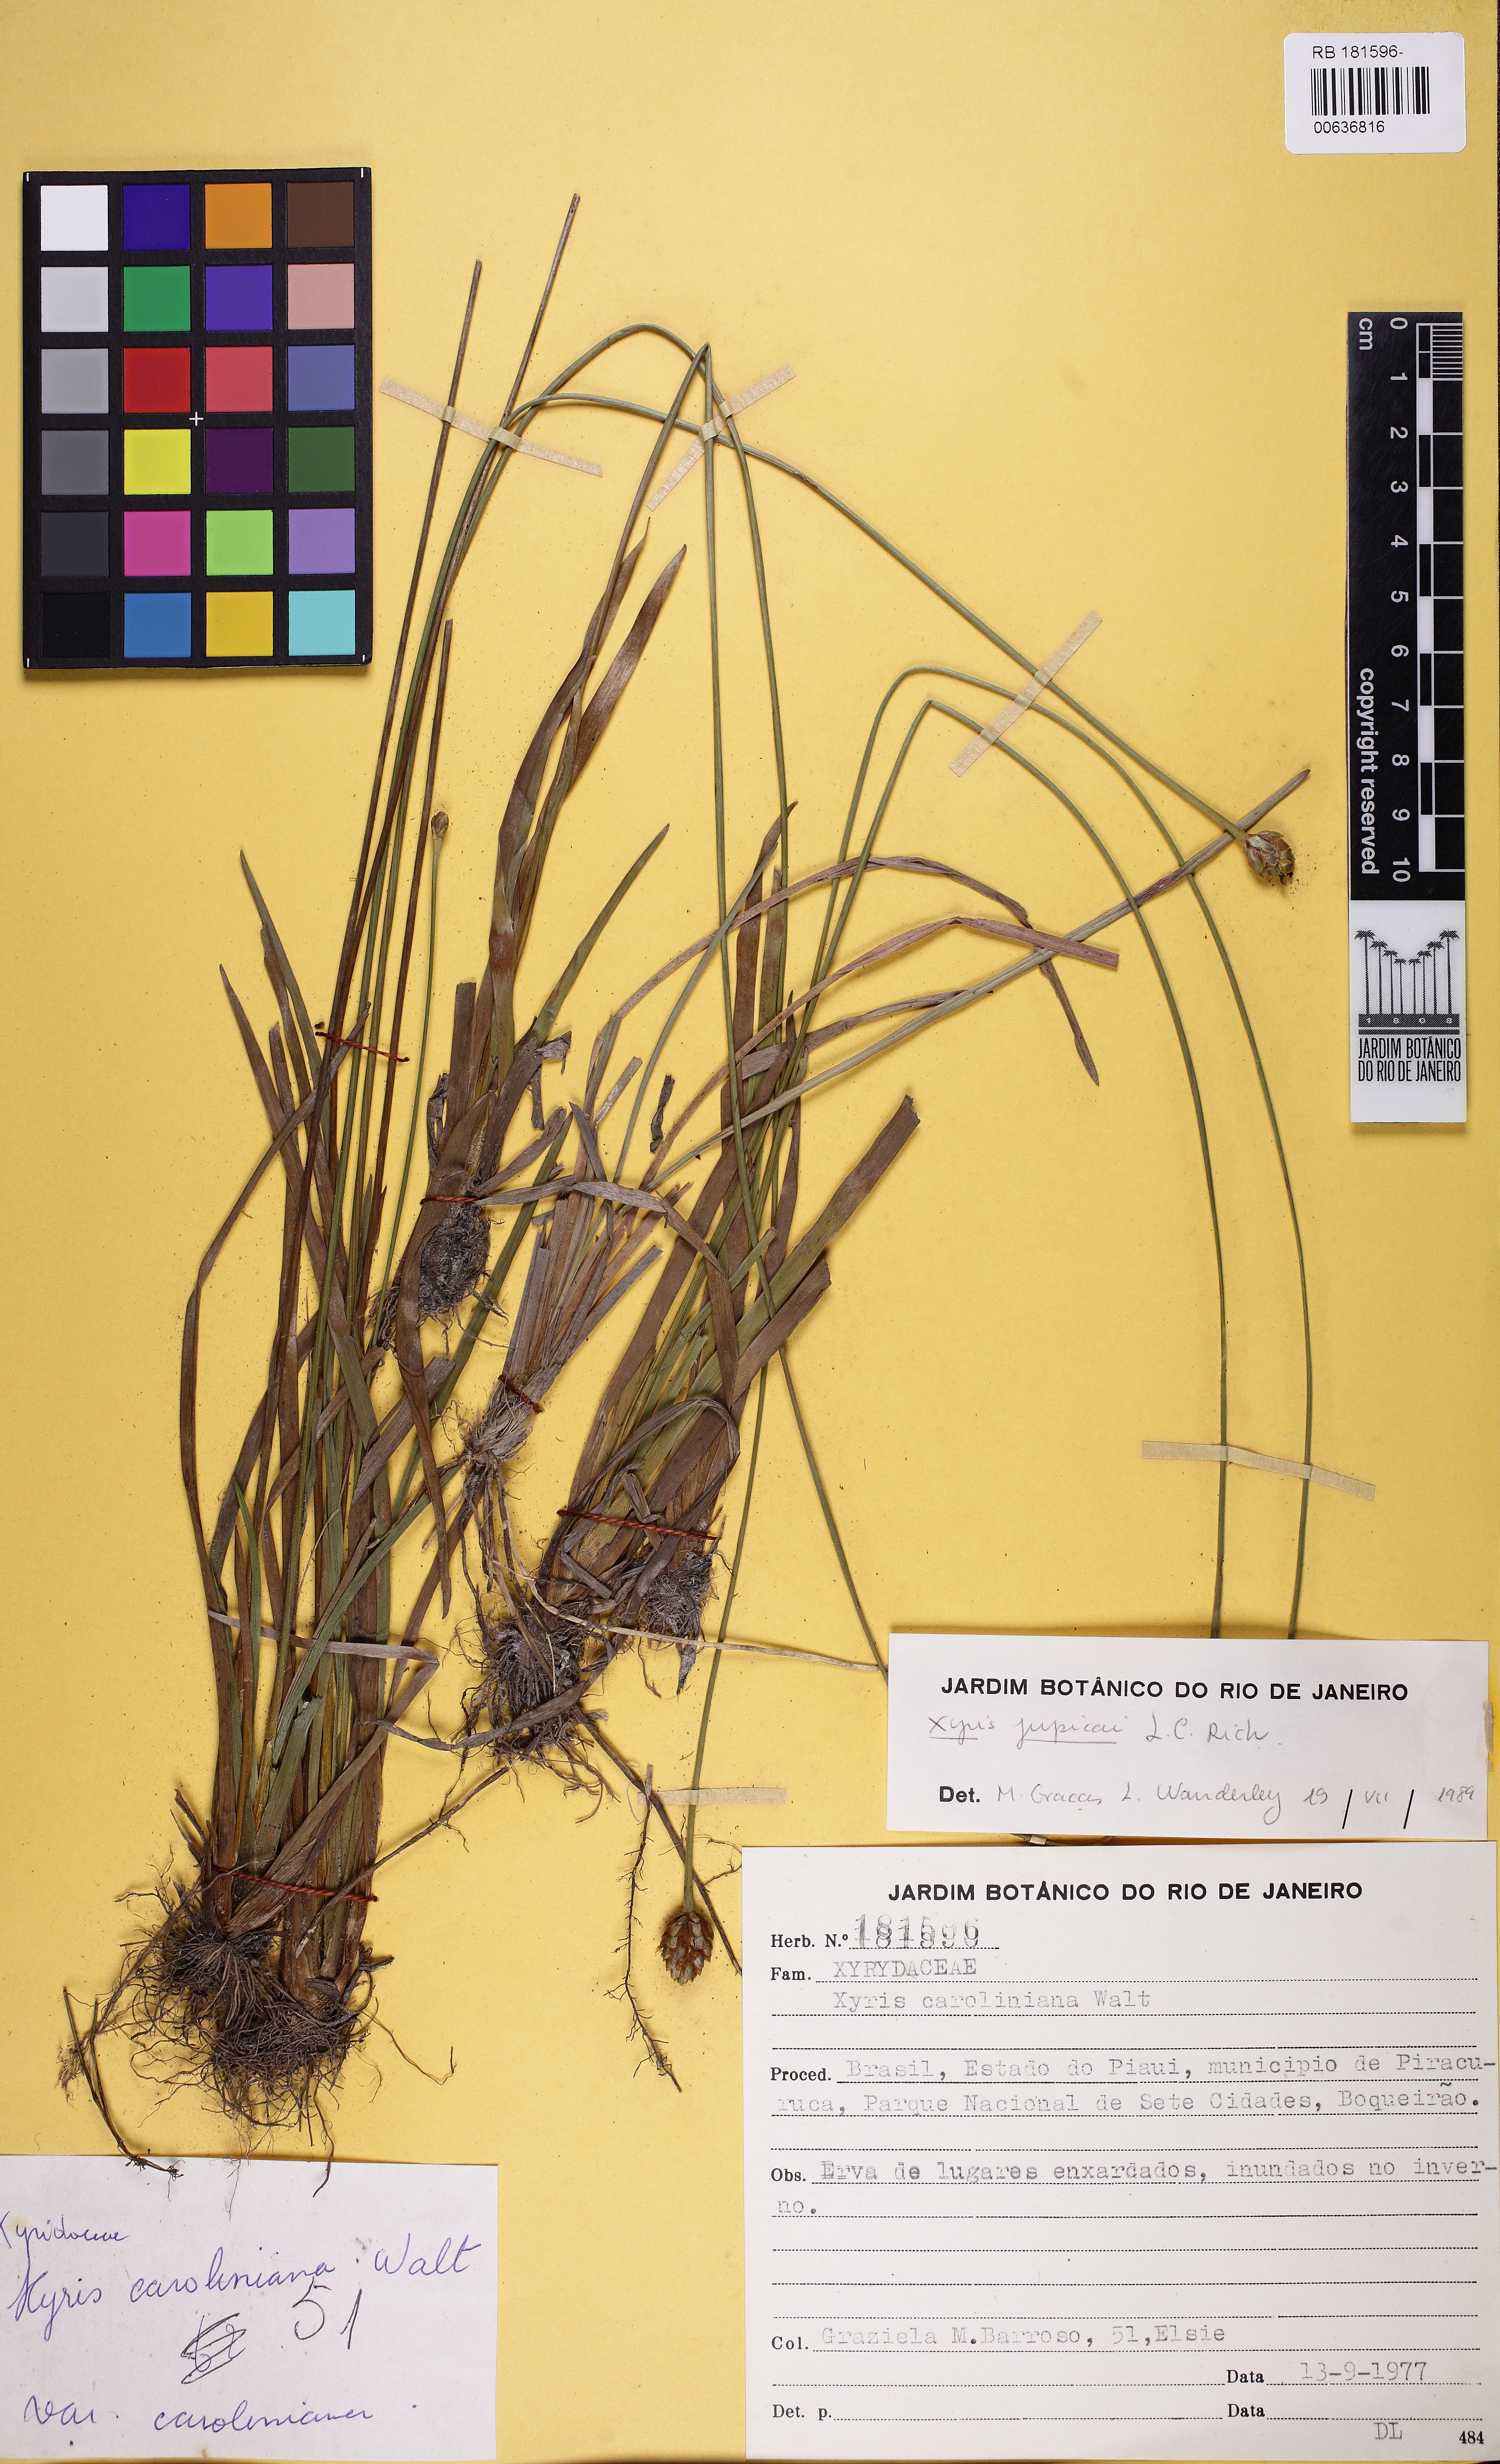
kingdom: Plantae
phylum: Tracheophyta
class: Liliopsida
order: Poales
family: Xyridaceae
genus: Xyris
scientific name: Xyris jupicai
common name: Richard's yelloweyed grass
